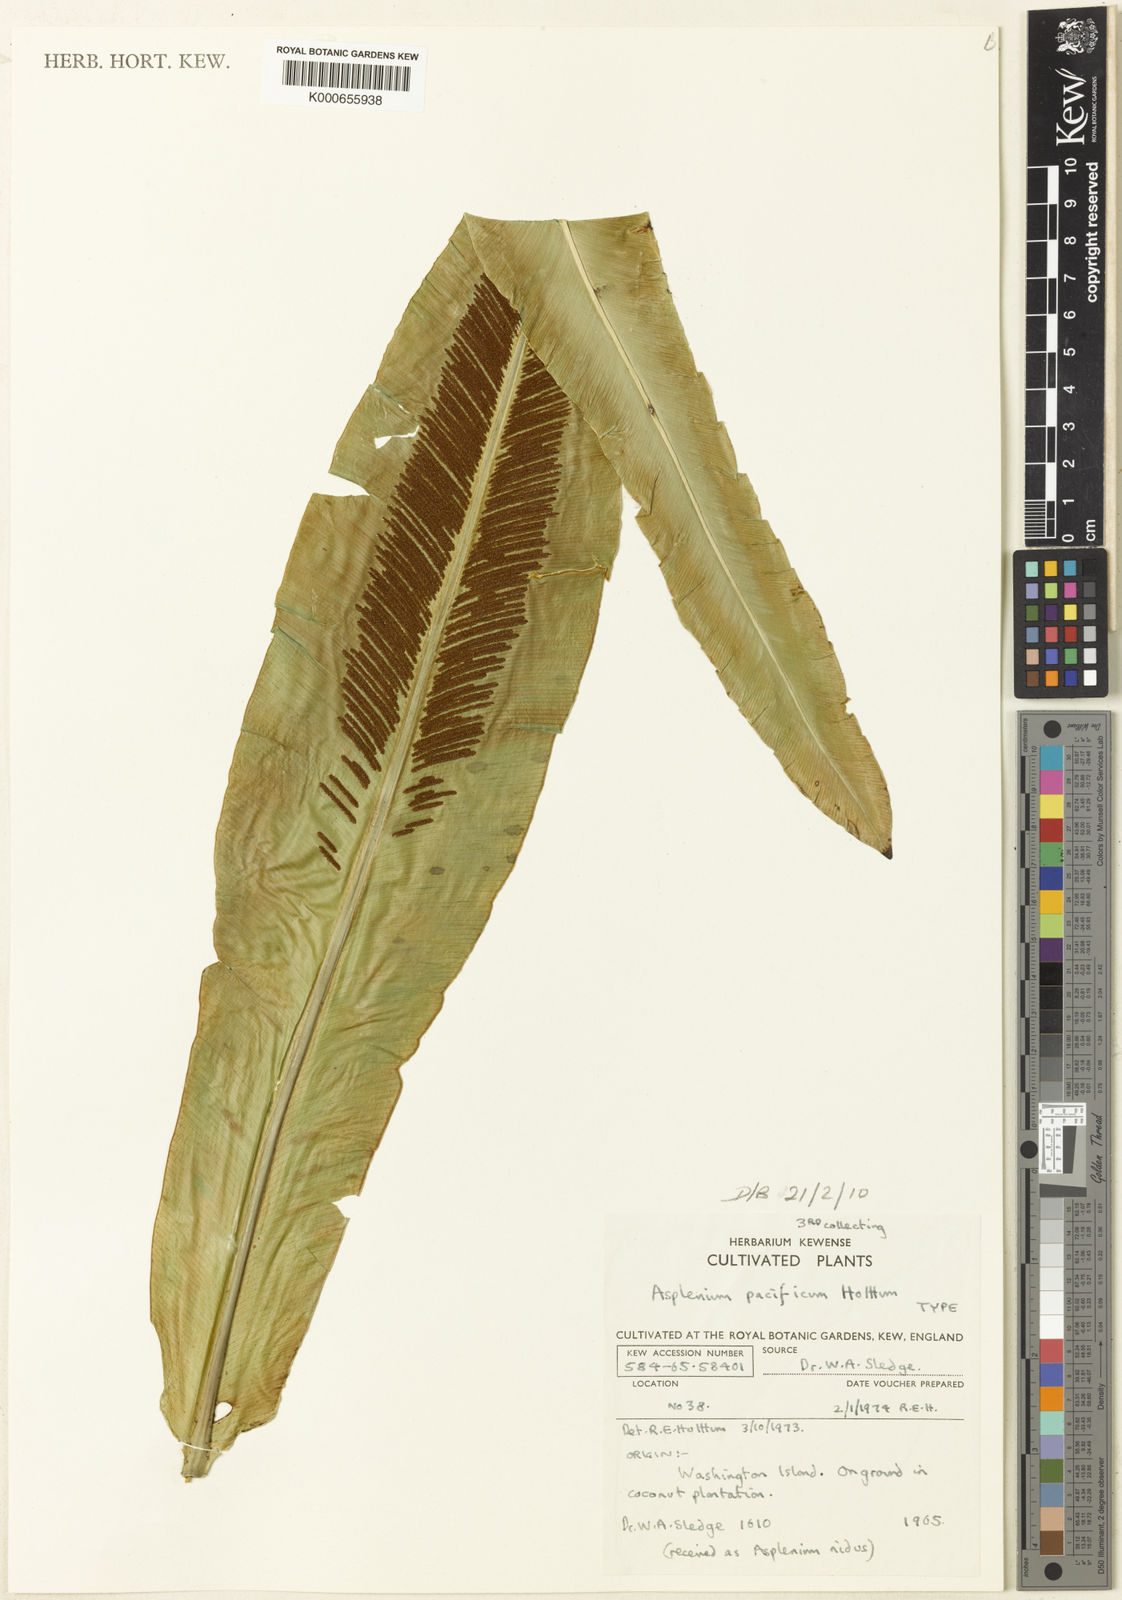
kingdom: Plantae
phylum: Tracheophyta
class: Polypodiopsida
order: Polypodiales
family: Aspleniaceae
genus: Asplenium
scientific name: Asplenium pacificum
